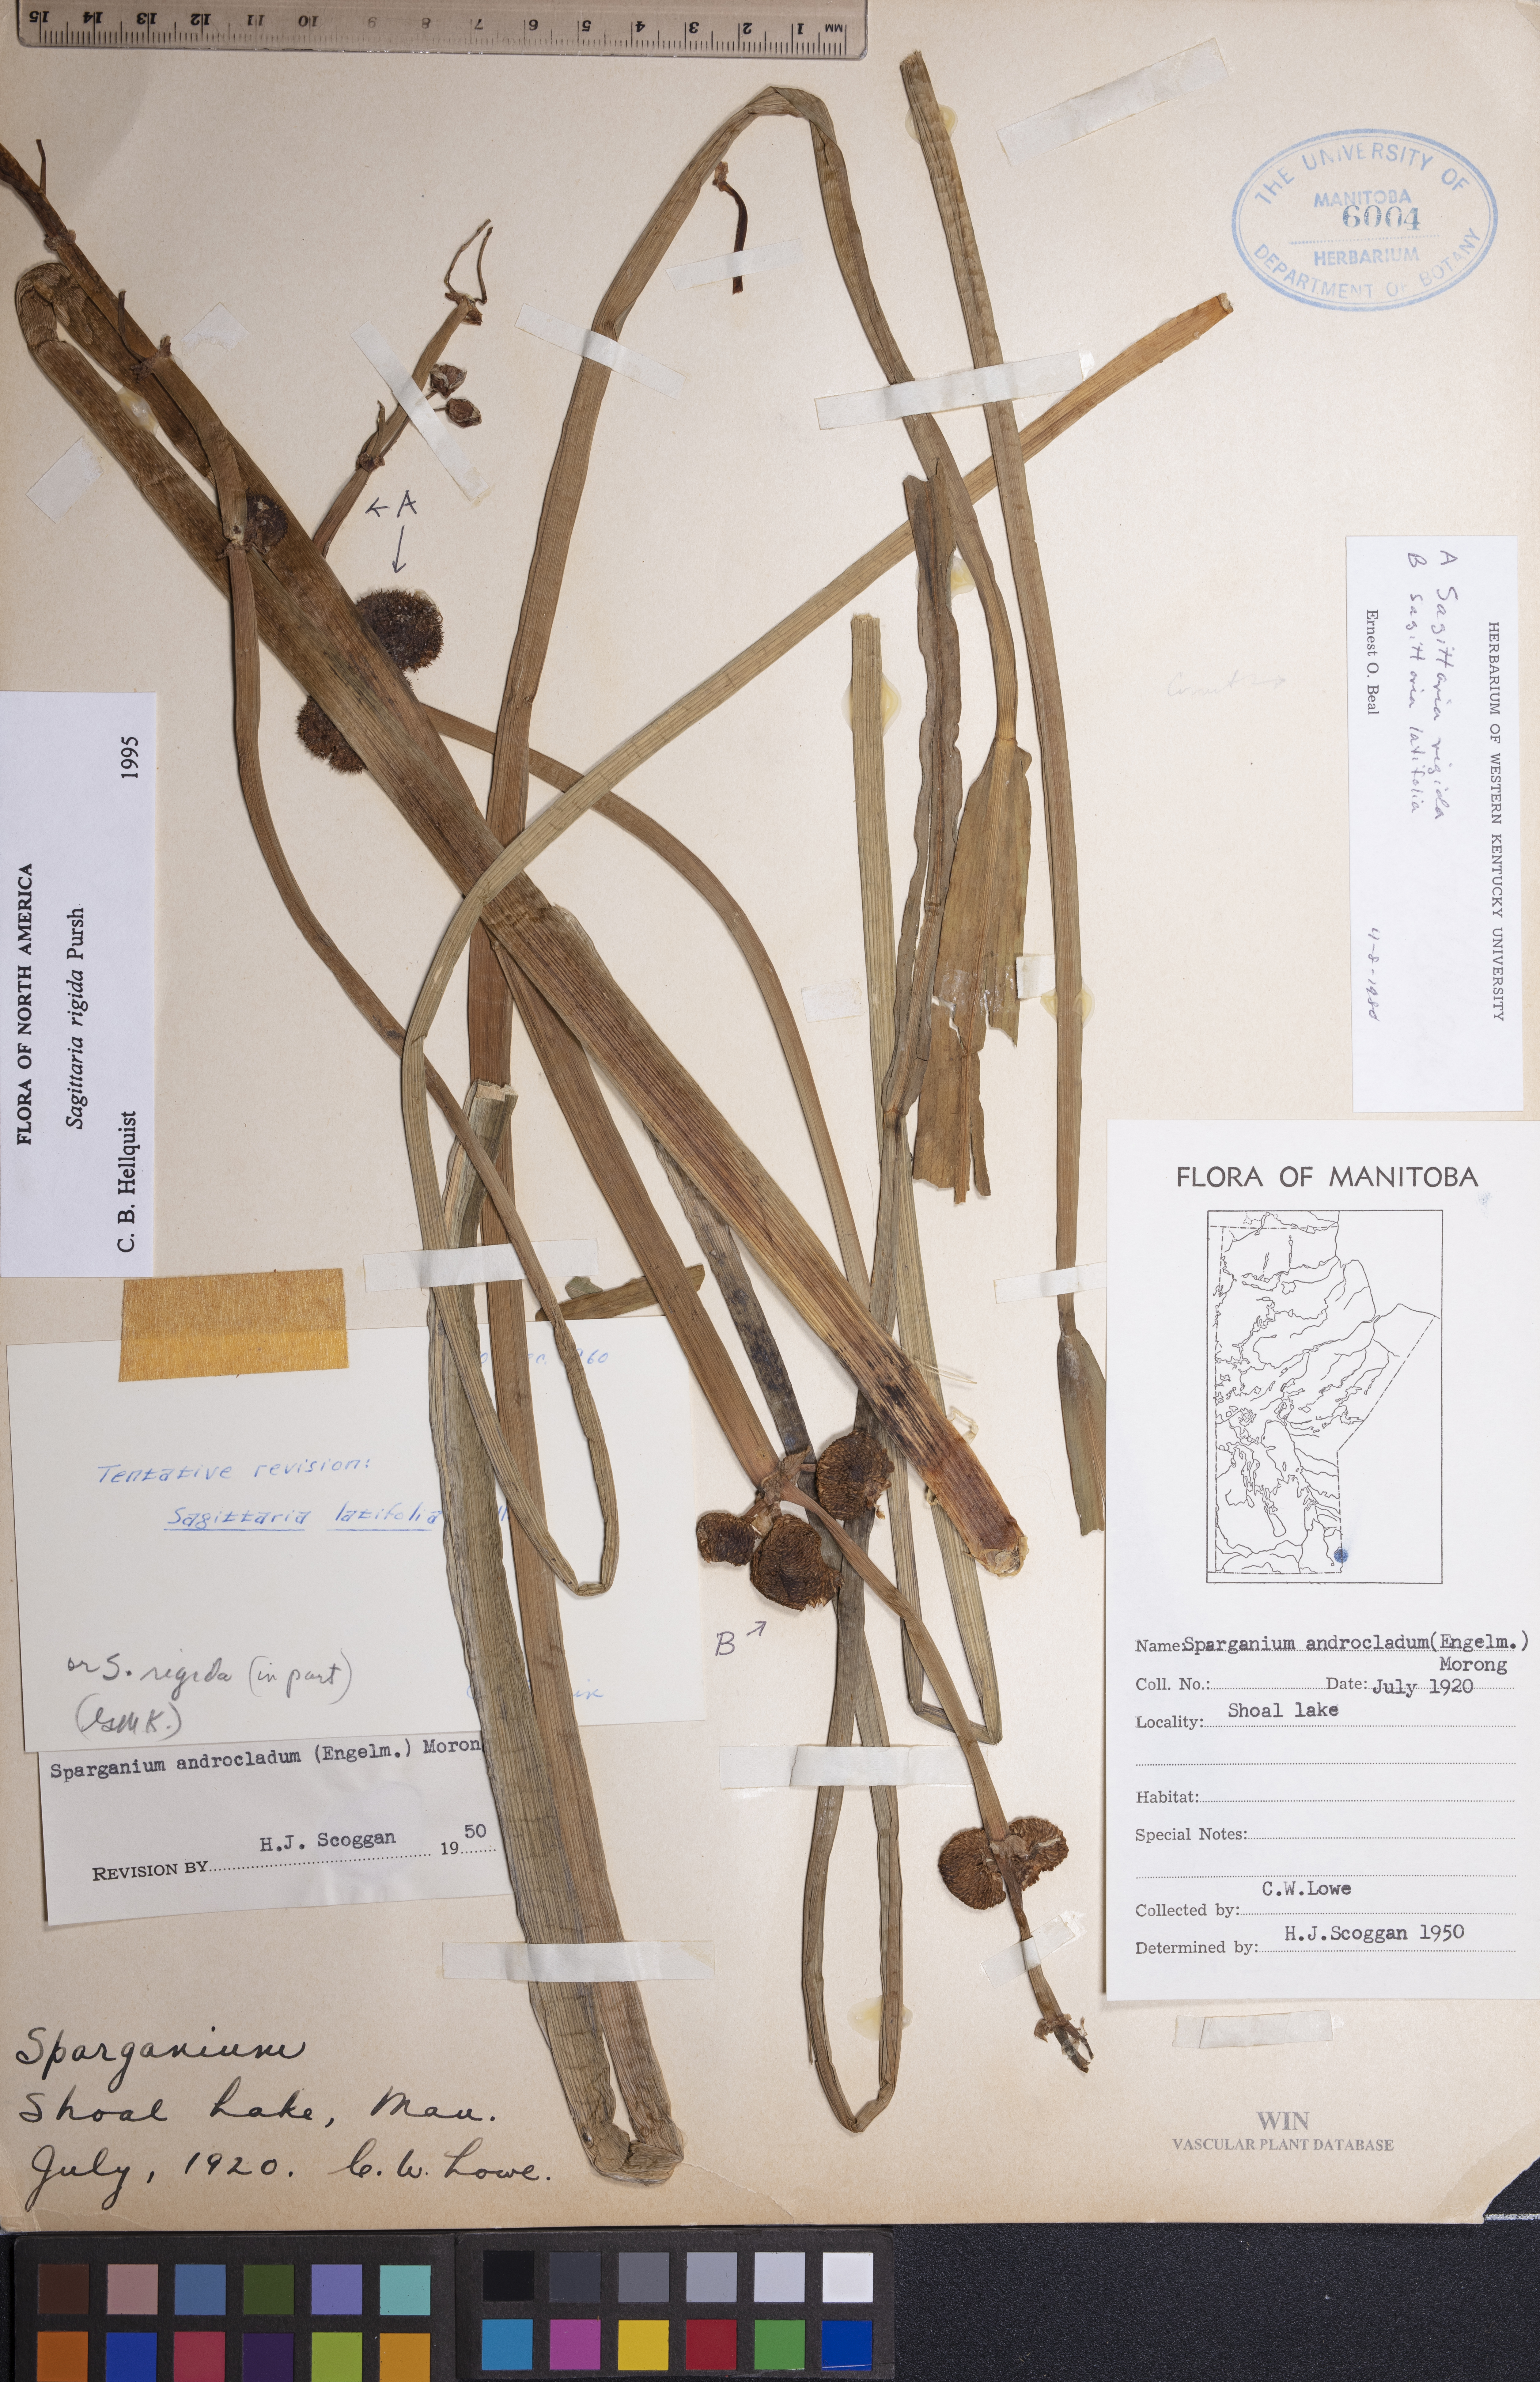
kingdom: Plantae
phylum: Tracheophyta
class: Liliopsida
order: Alismatales
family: Alismataceae
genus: Sagittaria
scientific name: Sagittaria rigida
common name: Canadian arrowhead
